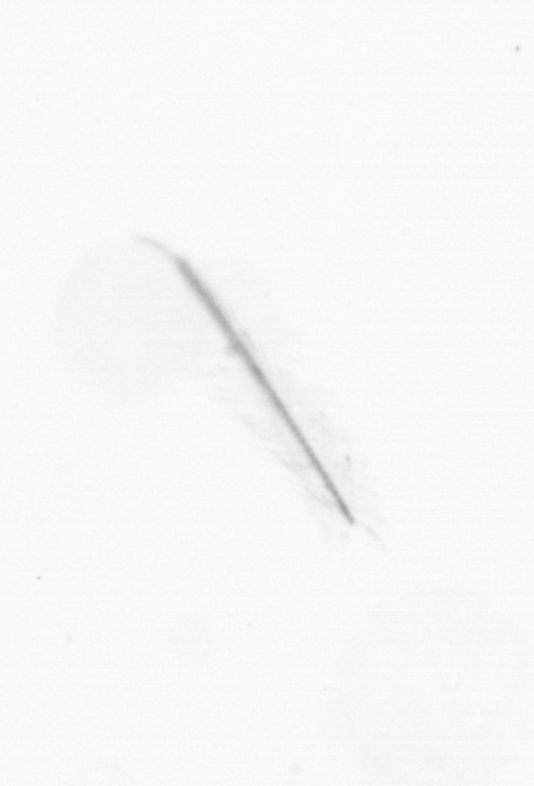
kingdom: Chromista
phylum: Ochrophyta
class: Bacillariophyceae
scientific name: Bacillariophyceae
